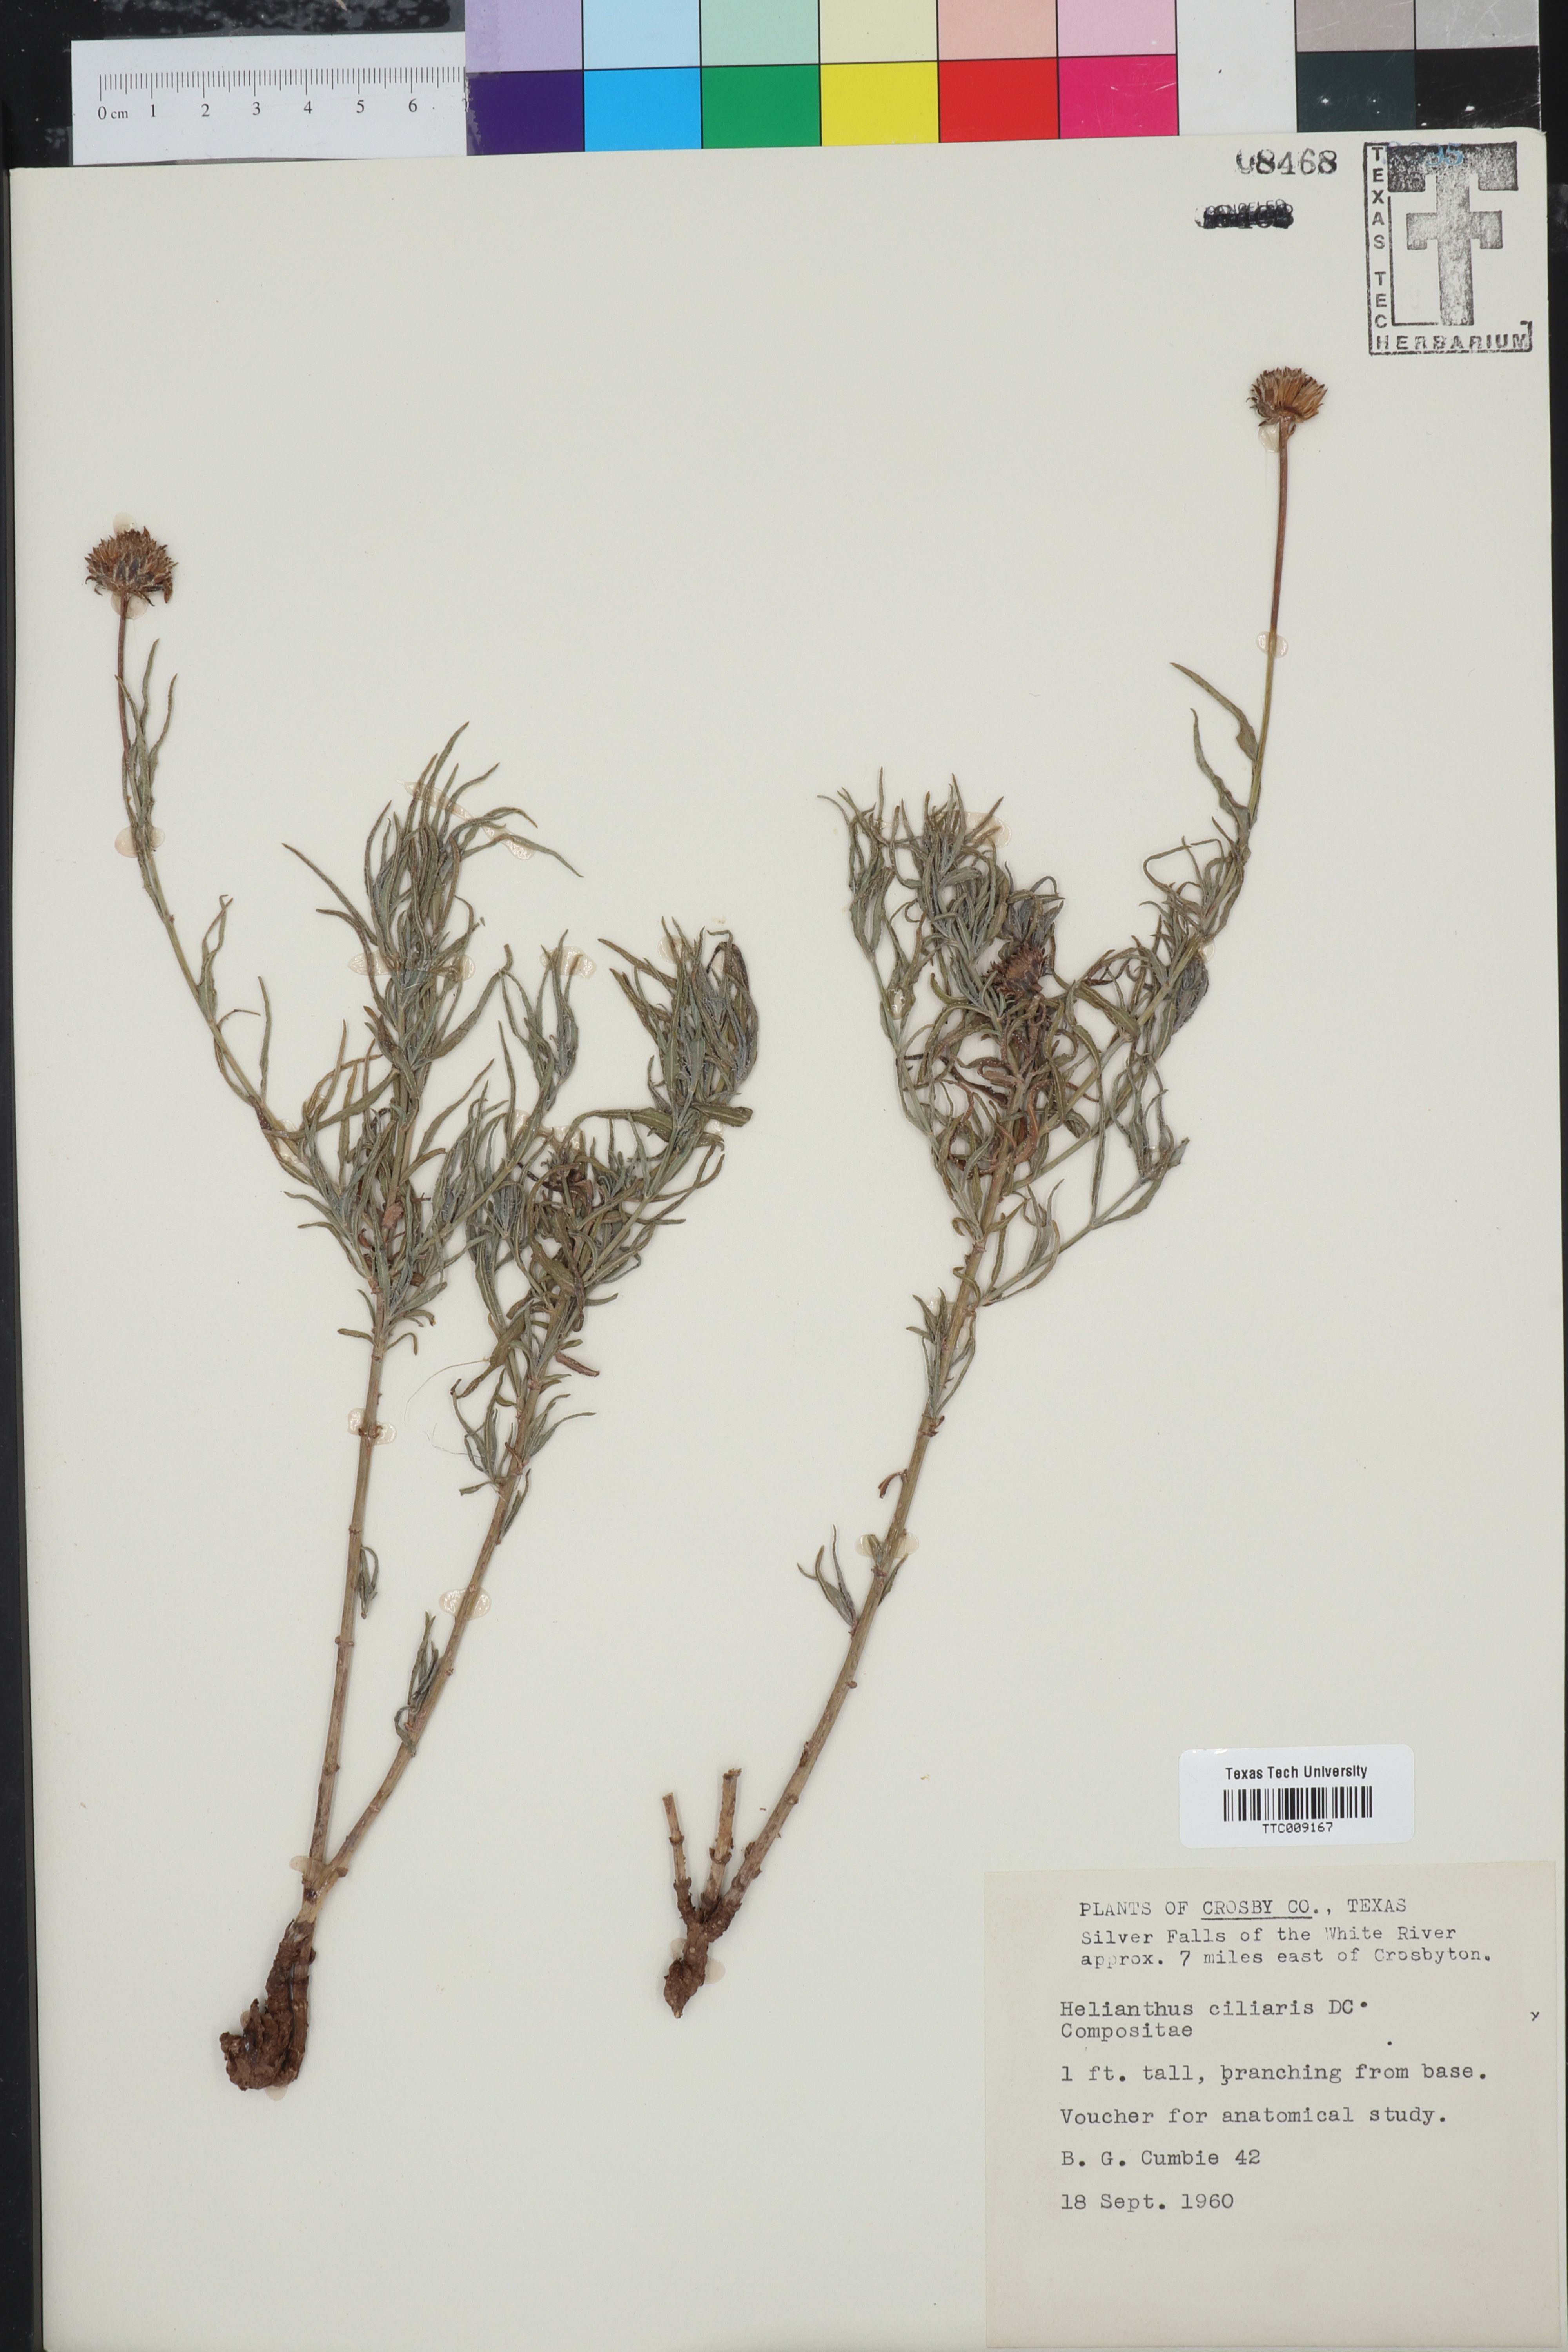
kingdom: Plantae
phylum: Tracheophyta
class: Magnoliopsida
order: Asterales
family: Asteraceae
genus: Helianthus
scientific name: Helianthus ciliaris
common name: Texas blueweed
